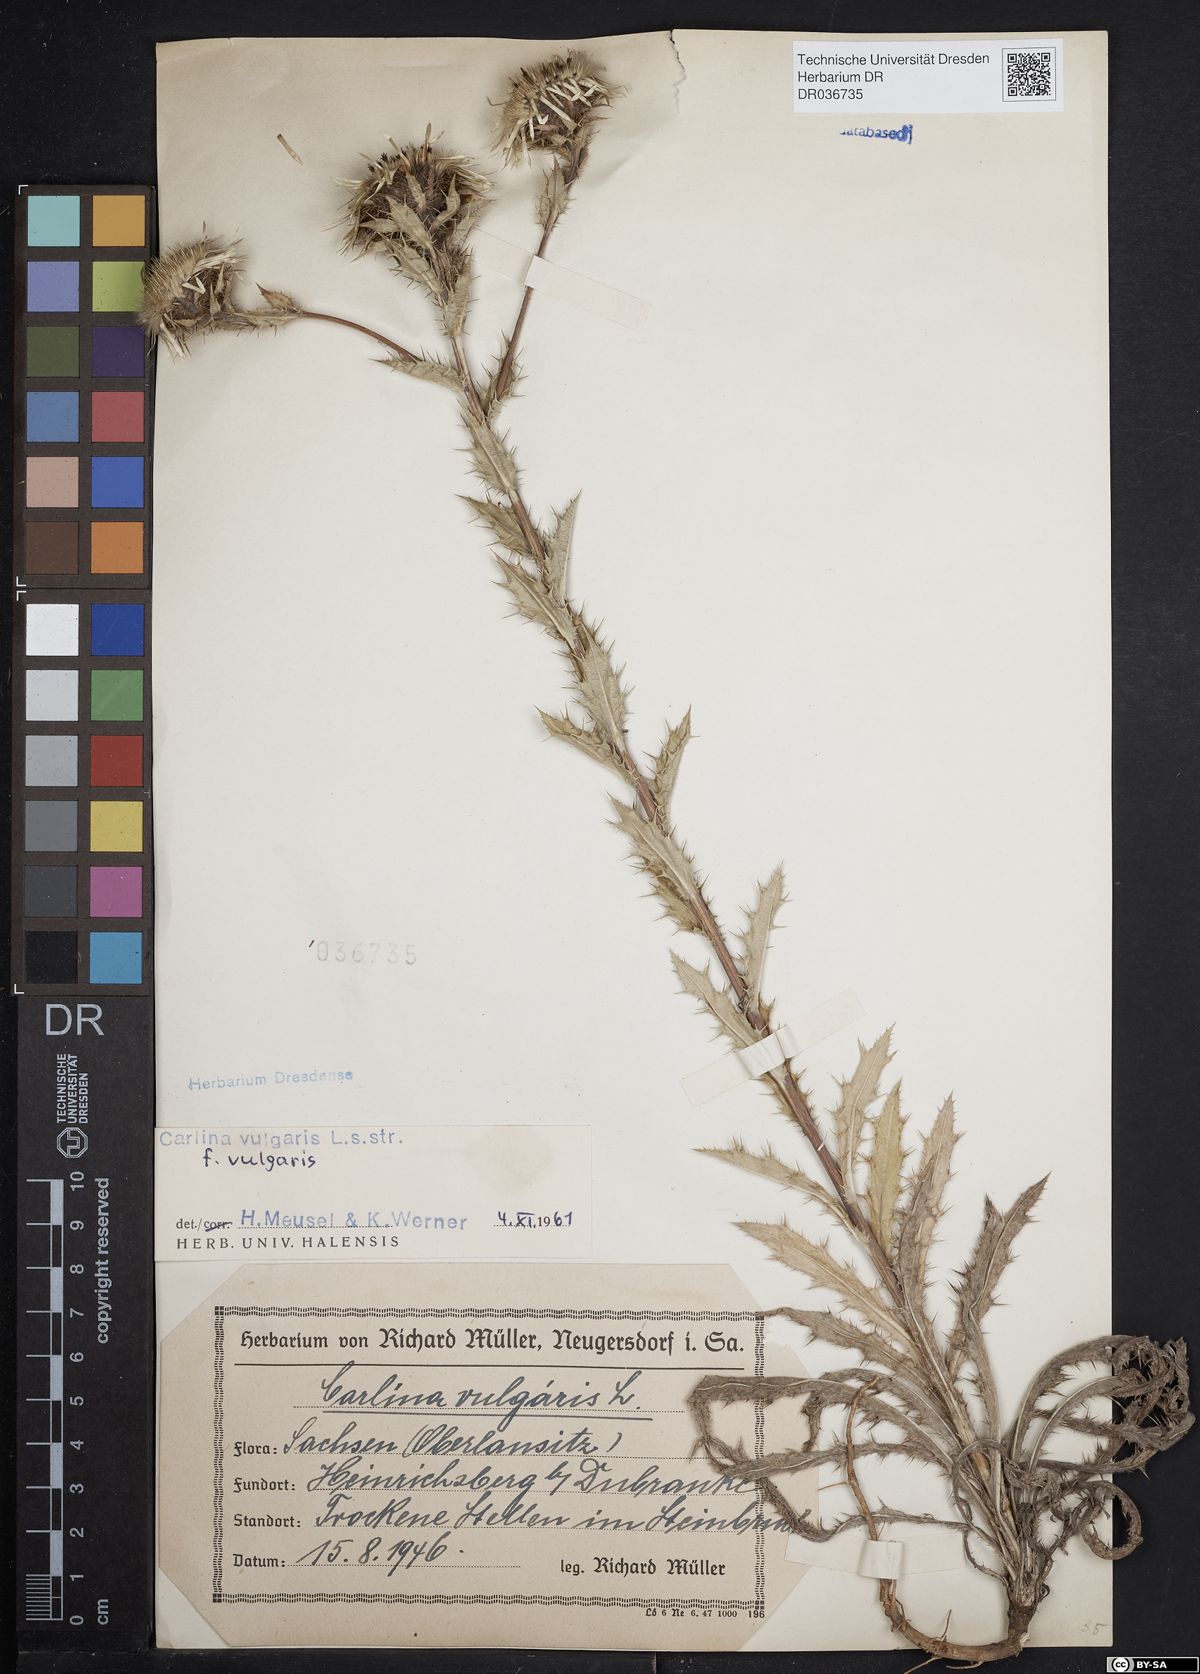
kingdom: Plantae
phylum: Tracheophyta
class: Magnoliopsida
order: Asterales
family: Asteraceae
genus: Carlina
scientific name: Carlina vulgaris
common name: Carline thistle
